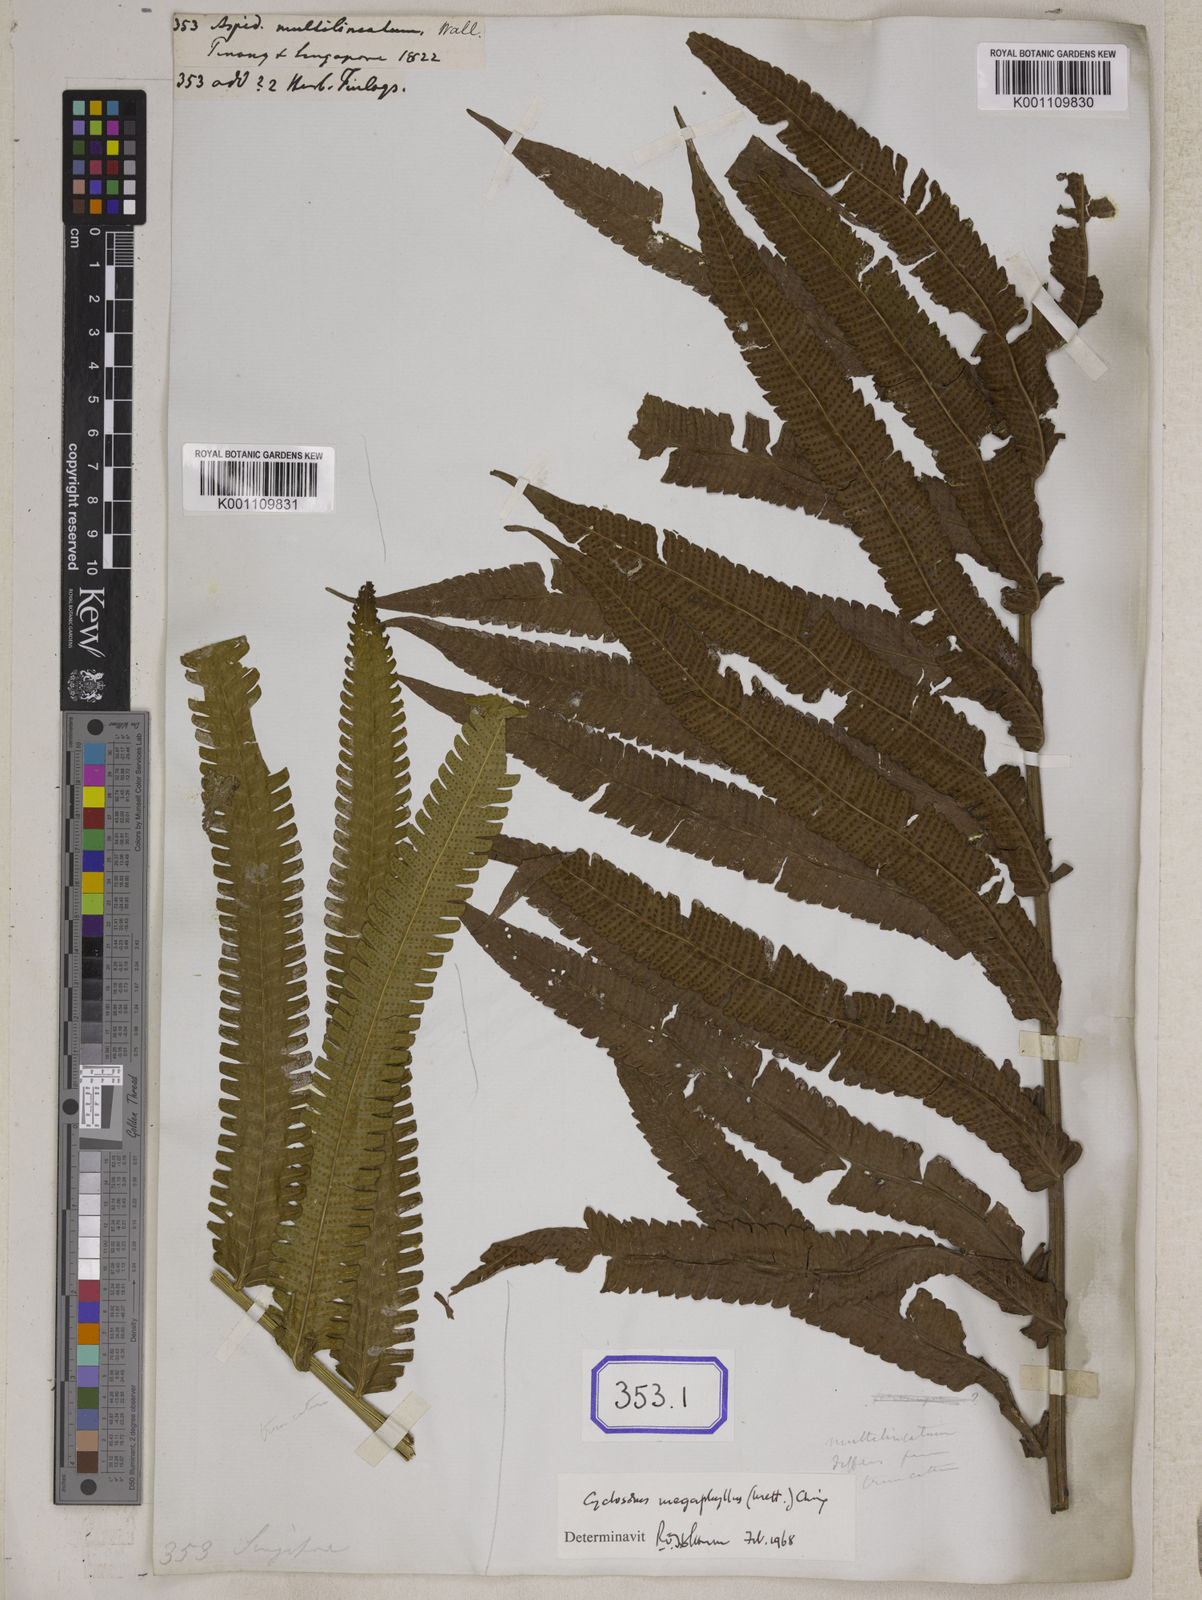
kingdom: Plantae
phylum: Tracheophyta
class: Polypodiopsida
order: Polypodiales
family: Thelypteridaceae
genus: Reholttumia
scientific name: Reholttumia truncata
